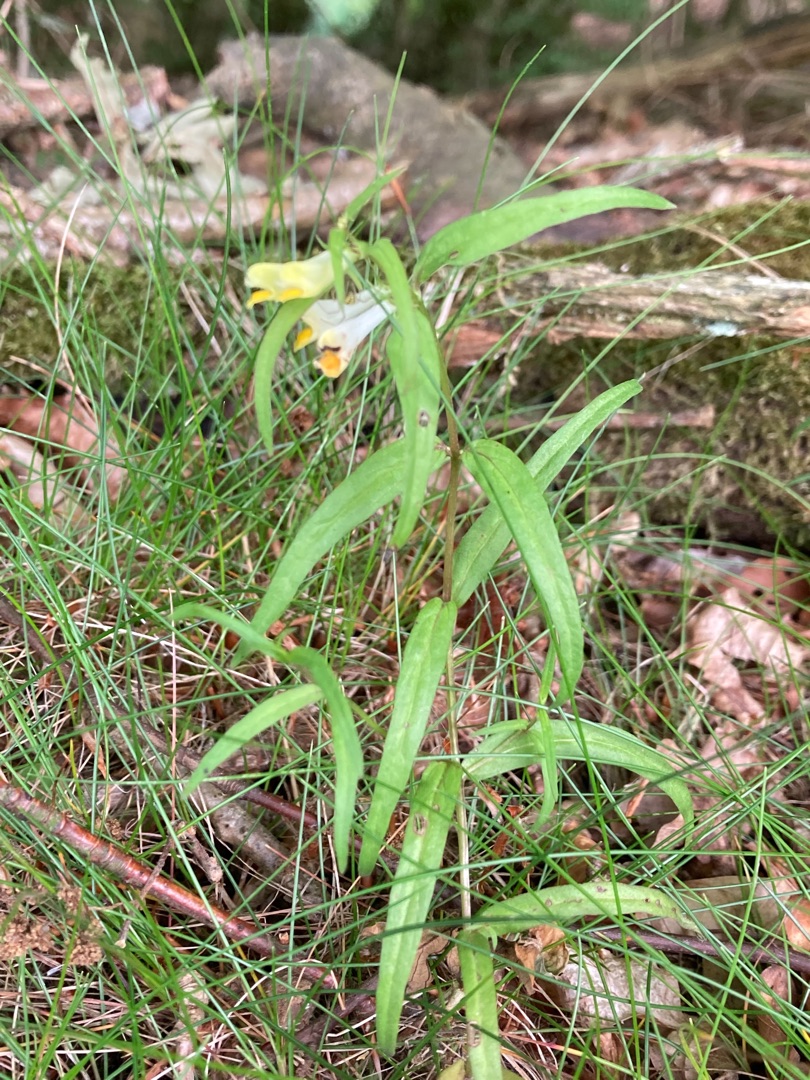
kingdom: Plantae
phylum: Tracheophyta
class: Magnoliopsida
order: Lamiales
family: Orobanchaceae
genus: Melampyrum
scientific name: Melampyrum pratense
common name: Almindelig kohvede
